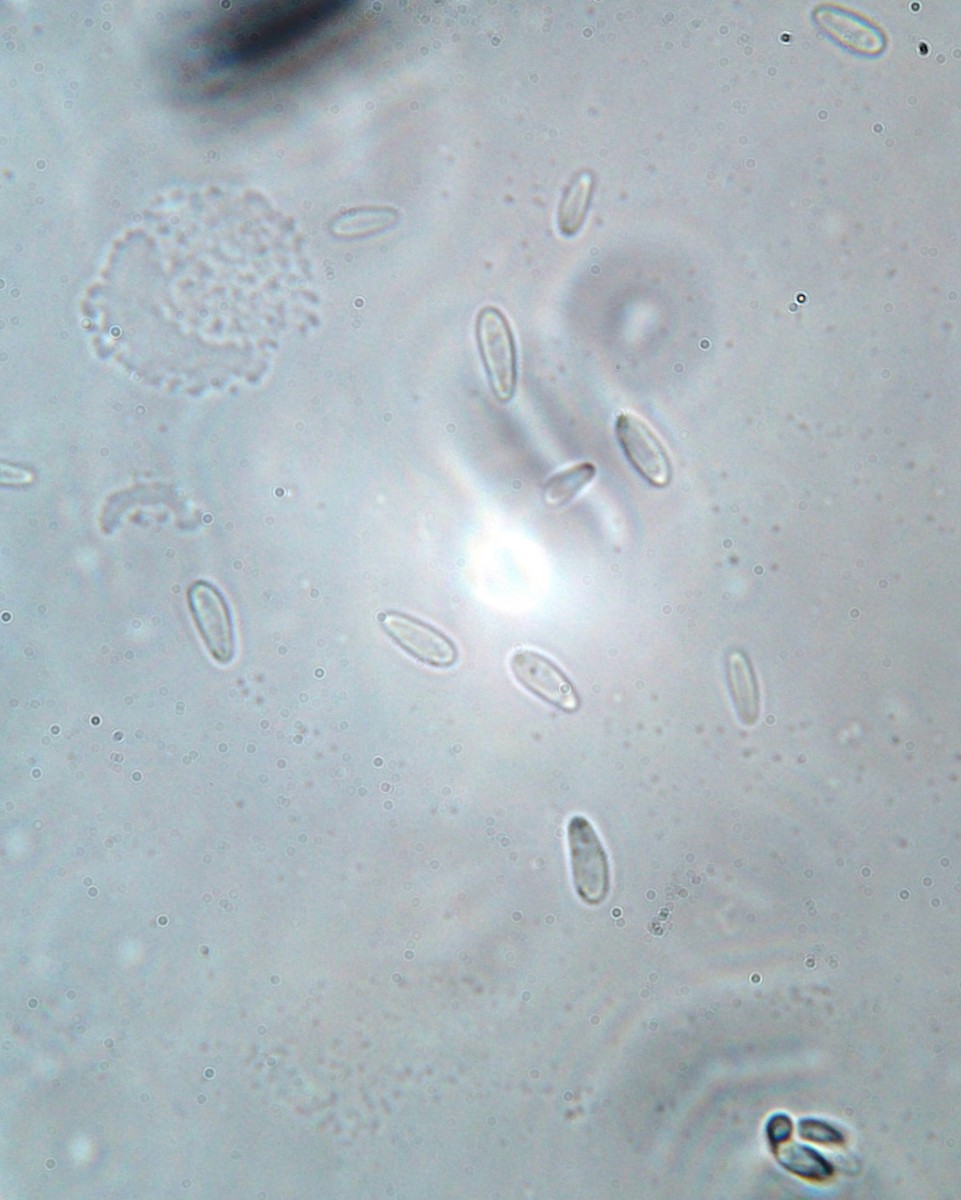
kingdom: Fungi
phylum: Ascomycota
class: Leotiomycetes
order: Helotiales
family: Pezizellaceae
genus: Gemmina
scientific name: Gemmina gemmarum
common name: poppelskæl-gulskive
